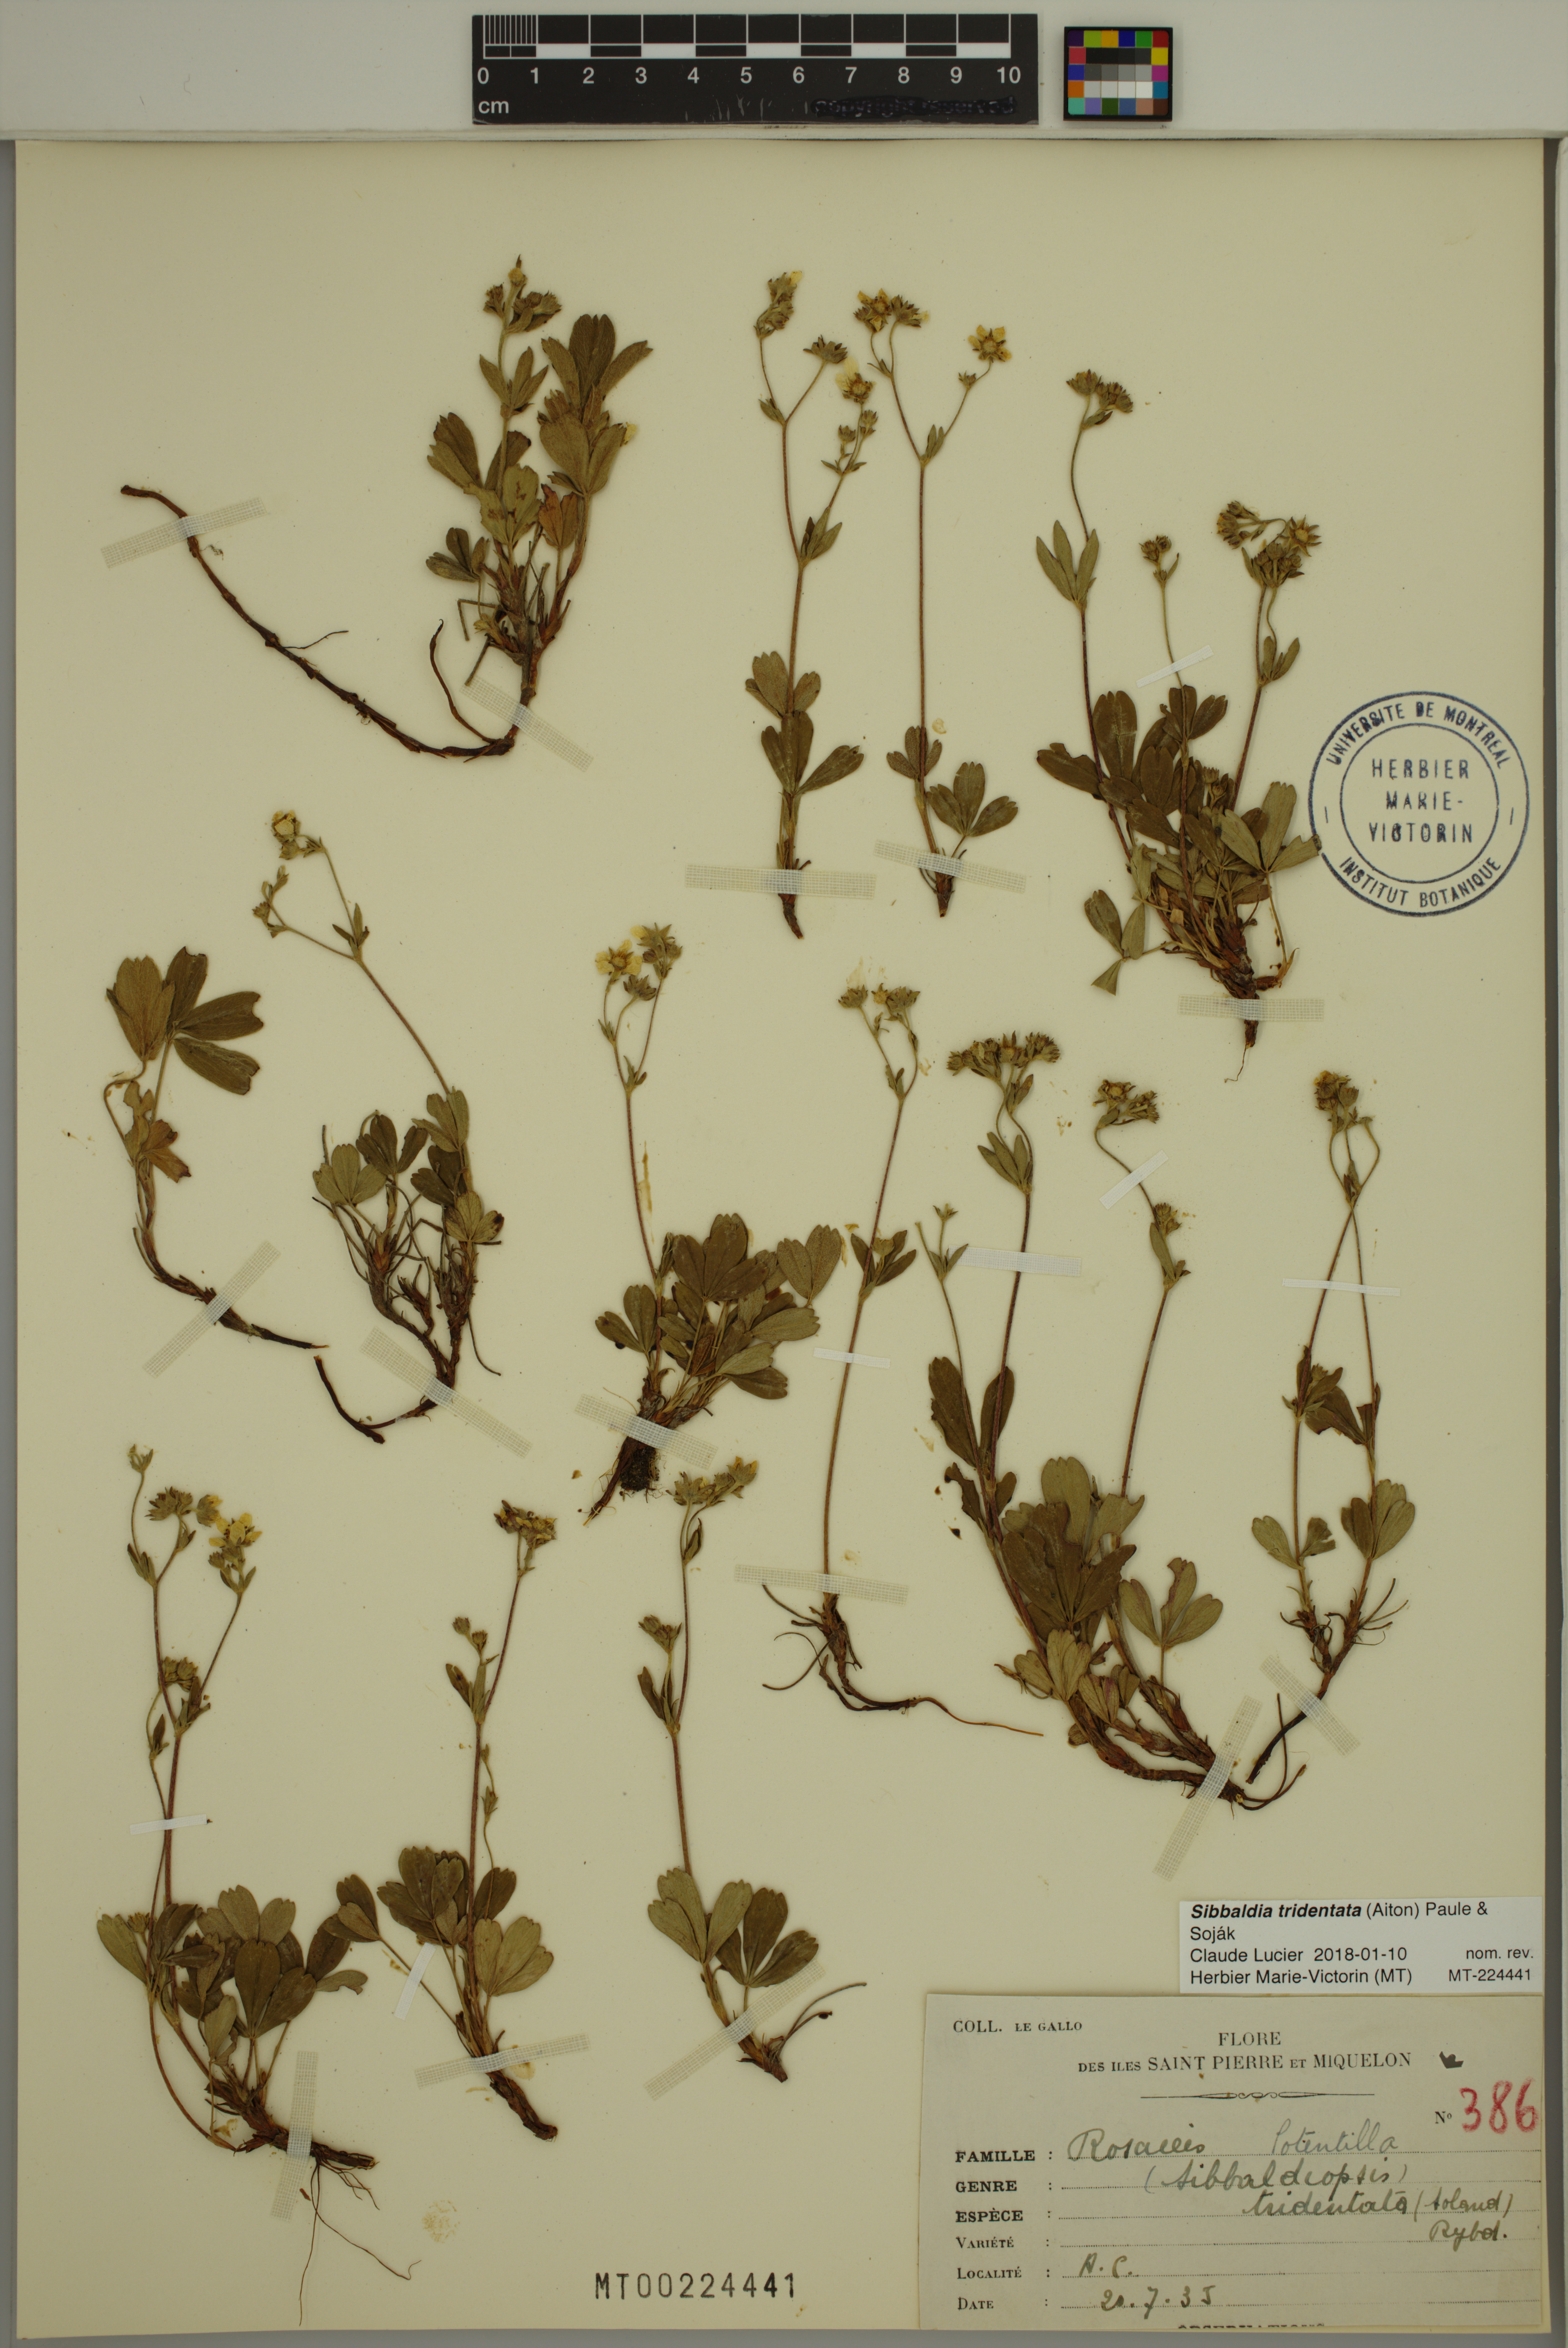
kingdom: Plantae
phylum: Tracheophyta
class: Magnoliopsida
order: Rosales
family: Rosaceae
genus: Sibbaldia
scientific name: Sibbaldia tridentata
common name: Three-toothed cinquefoil
